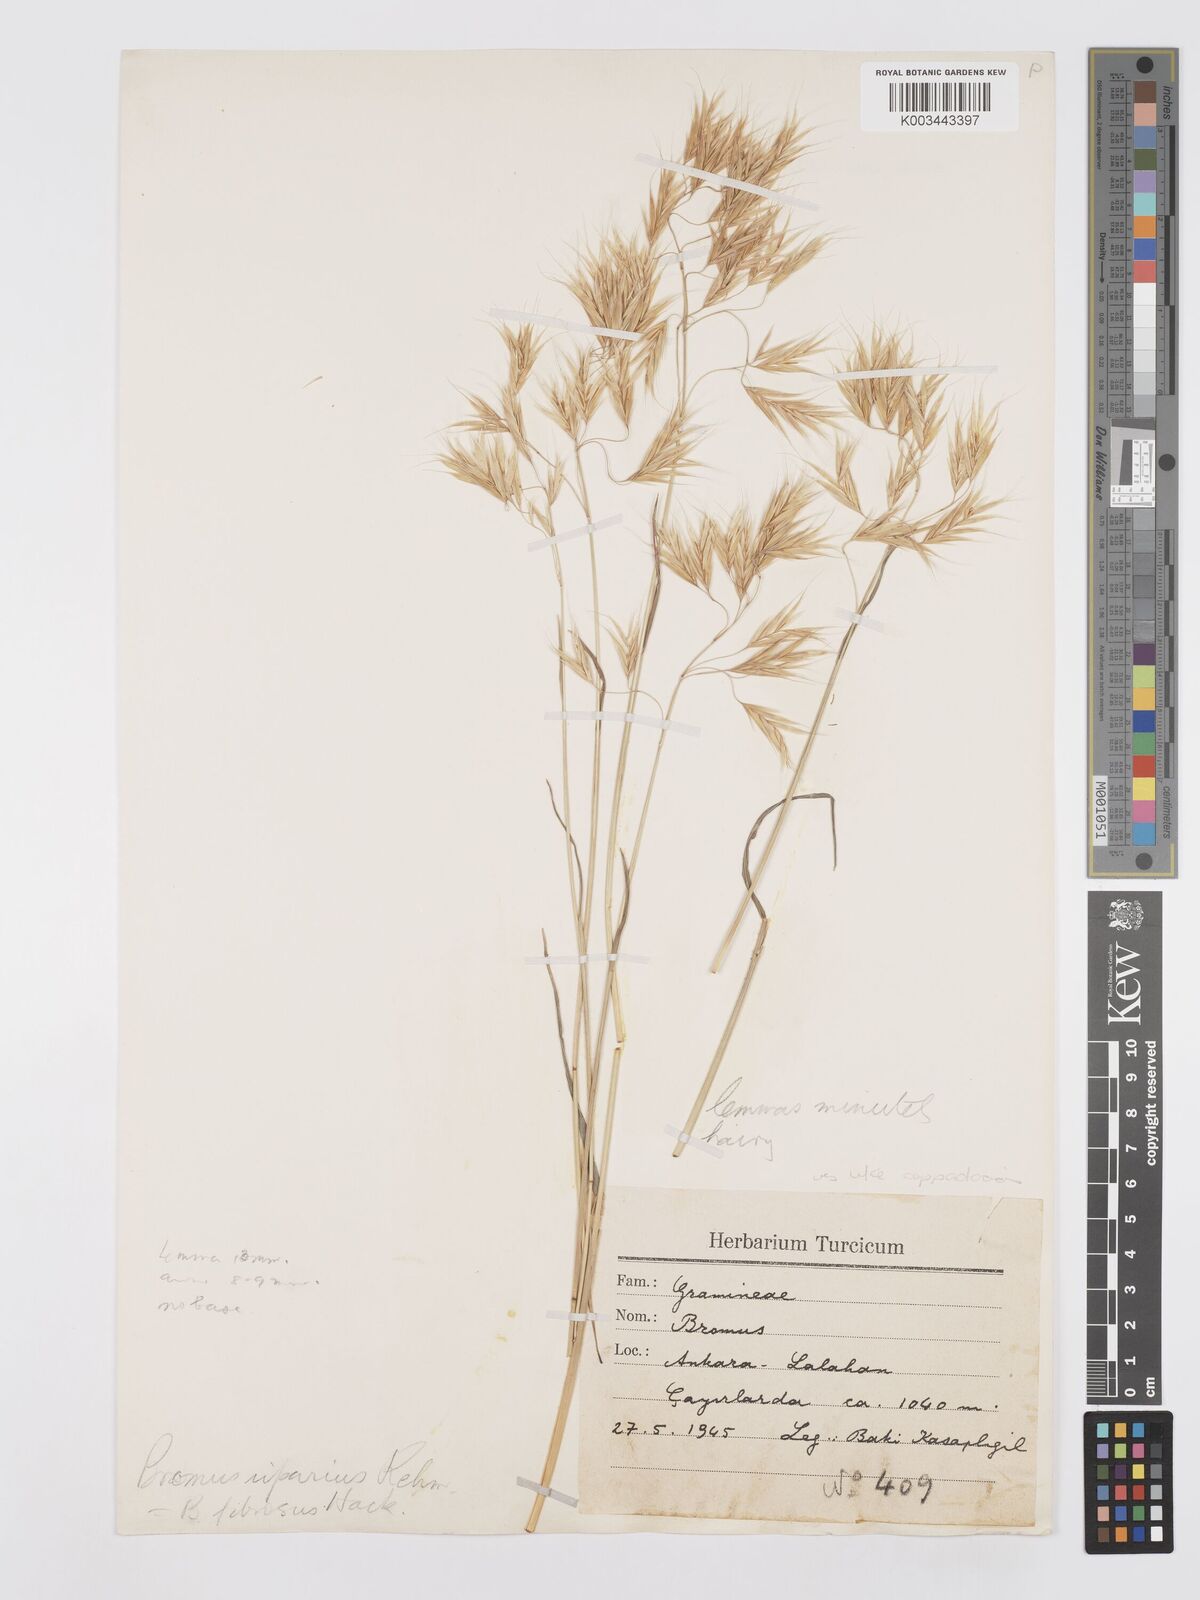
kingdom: Plantae
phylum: Tracheophyta
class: Liliopsida
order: Poales
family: Poaceae
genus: Bromus
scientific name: Bromus riparius
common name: Meadow brome
